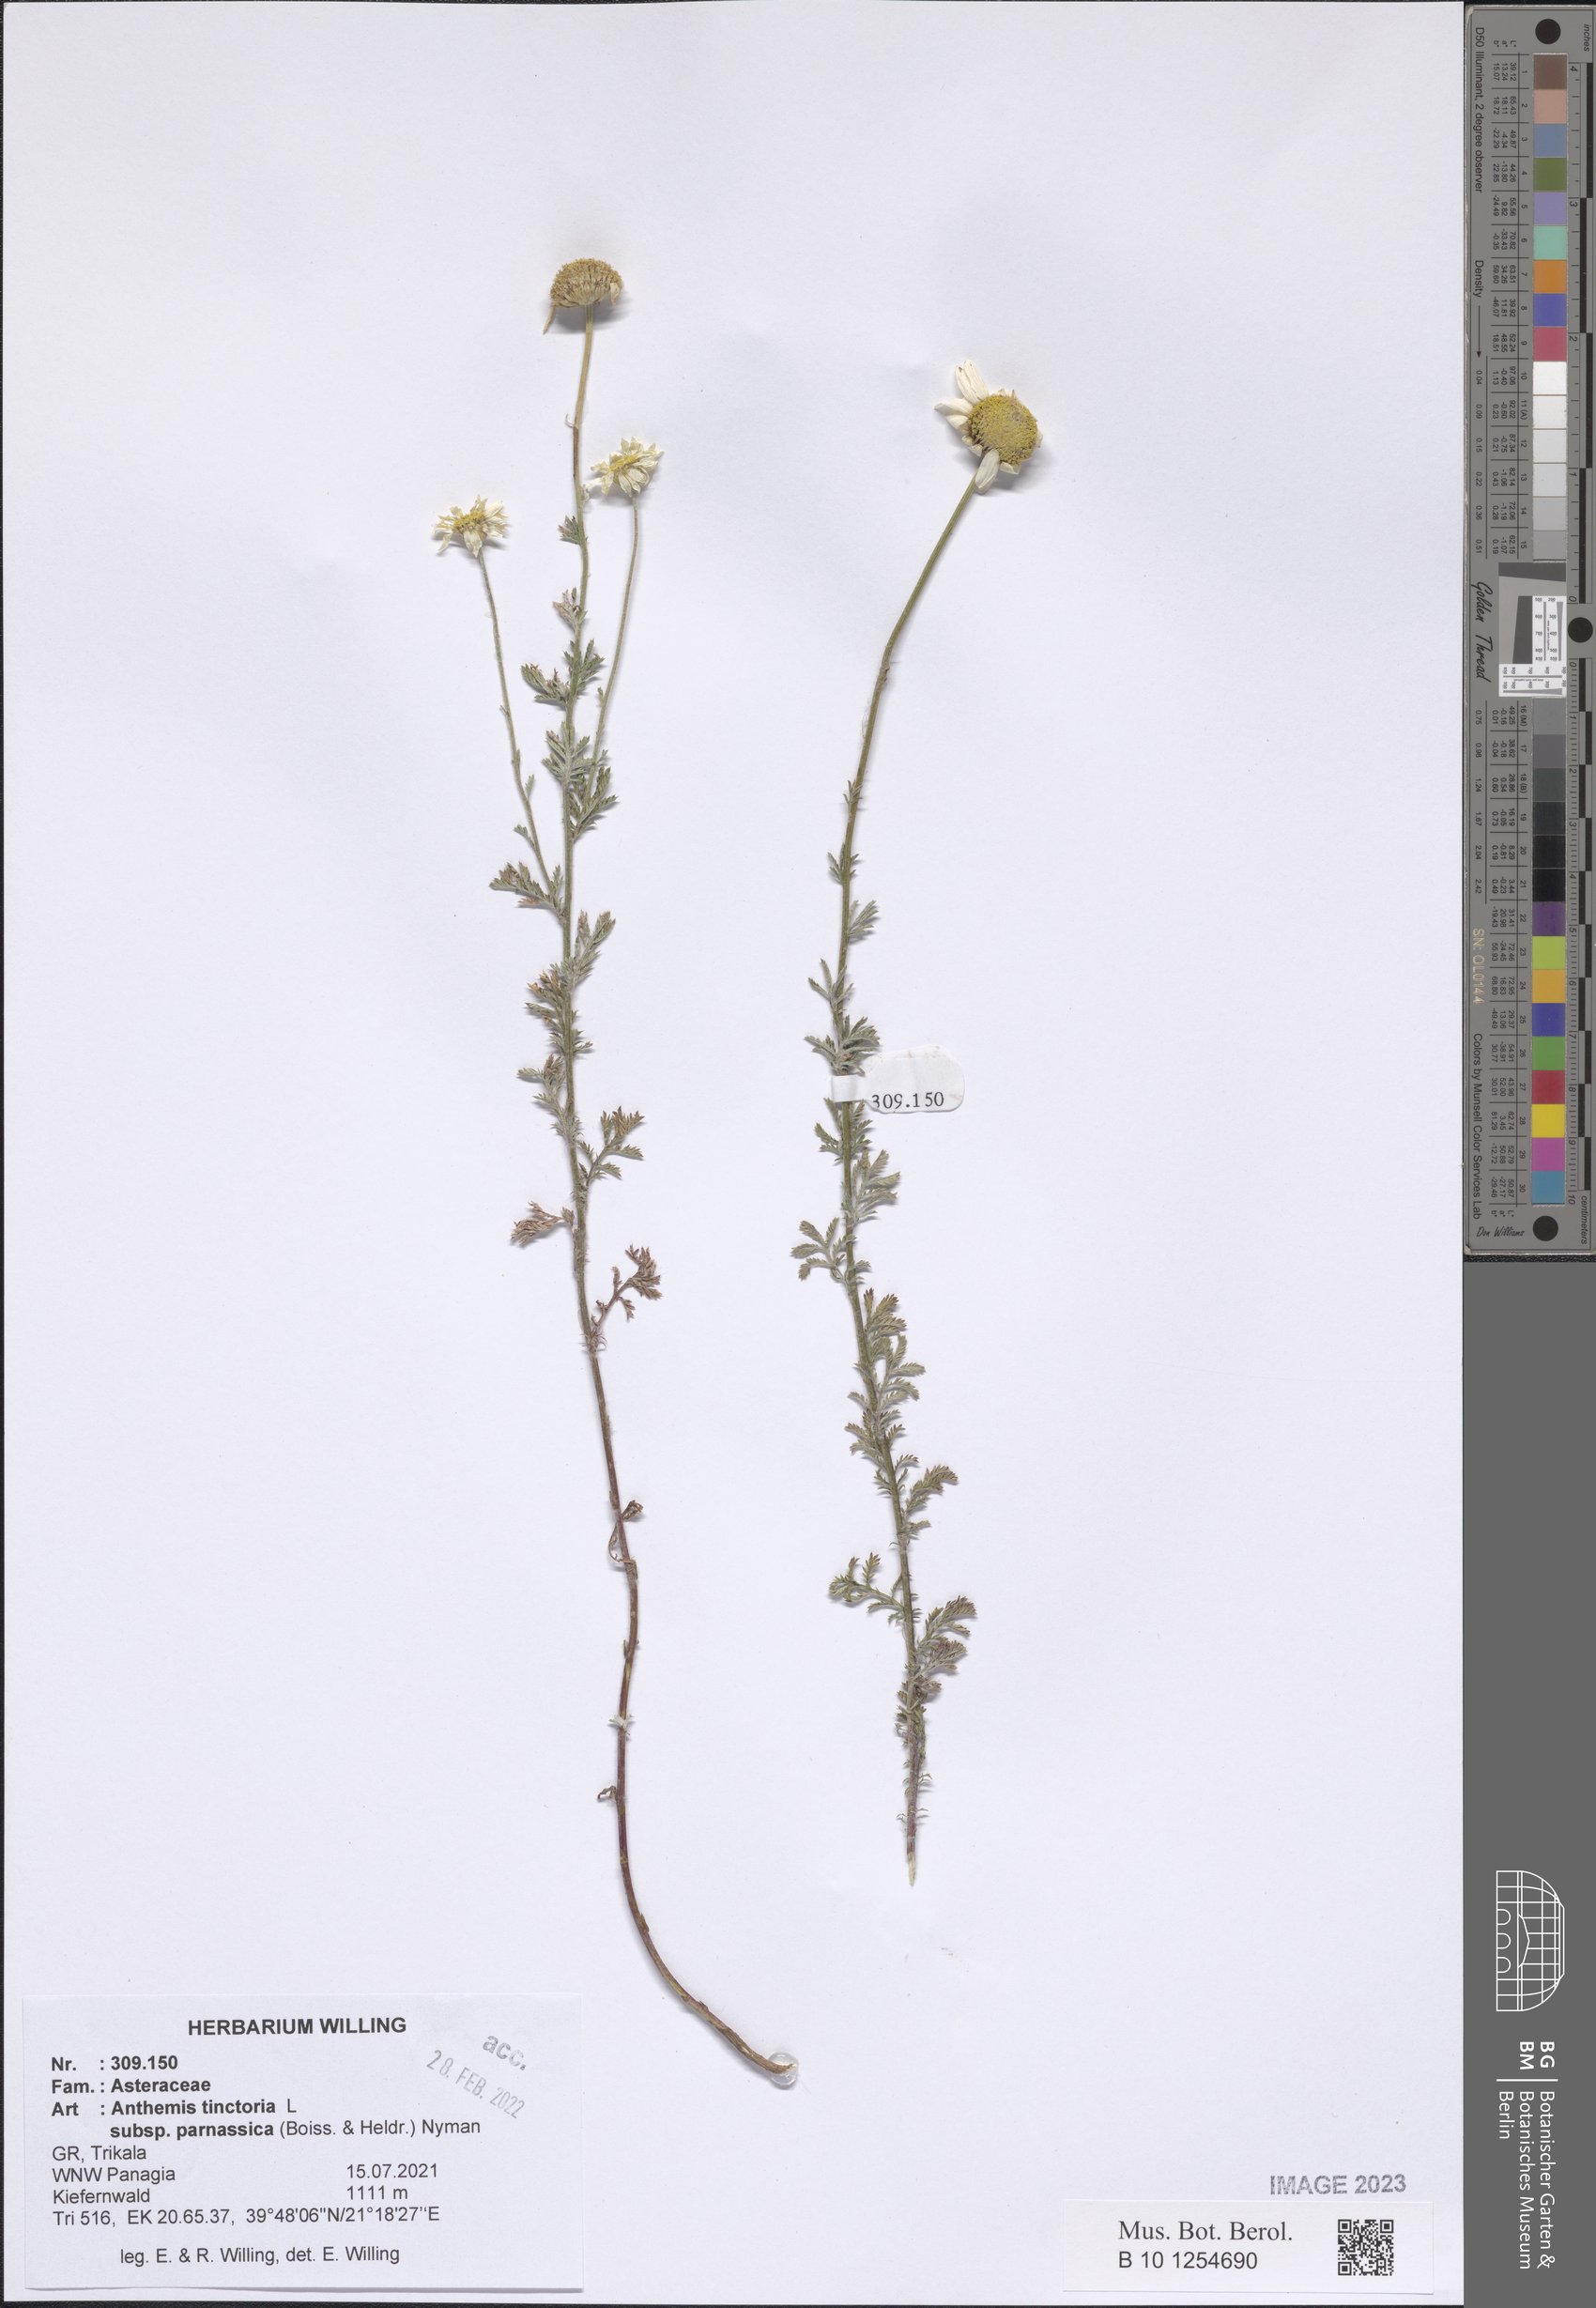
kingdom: Plantae
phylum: Tracheophyta
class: Magnoliopsida
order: Asterales
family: Asteraceae
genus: Cota
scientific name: Cota tinctoria
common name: Golden chamomile
